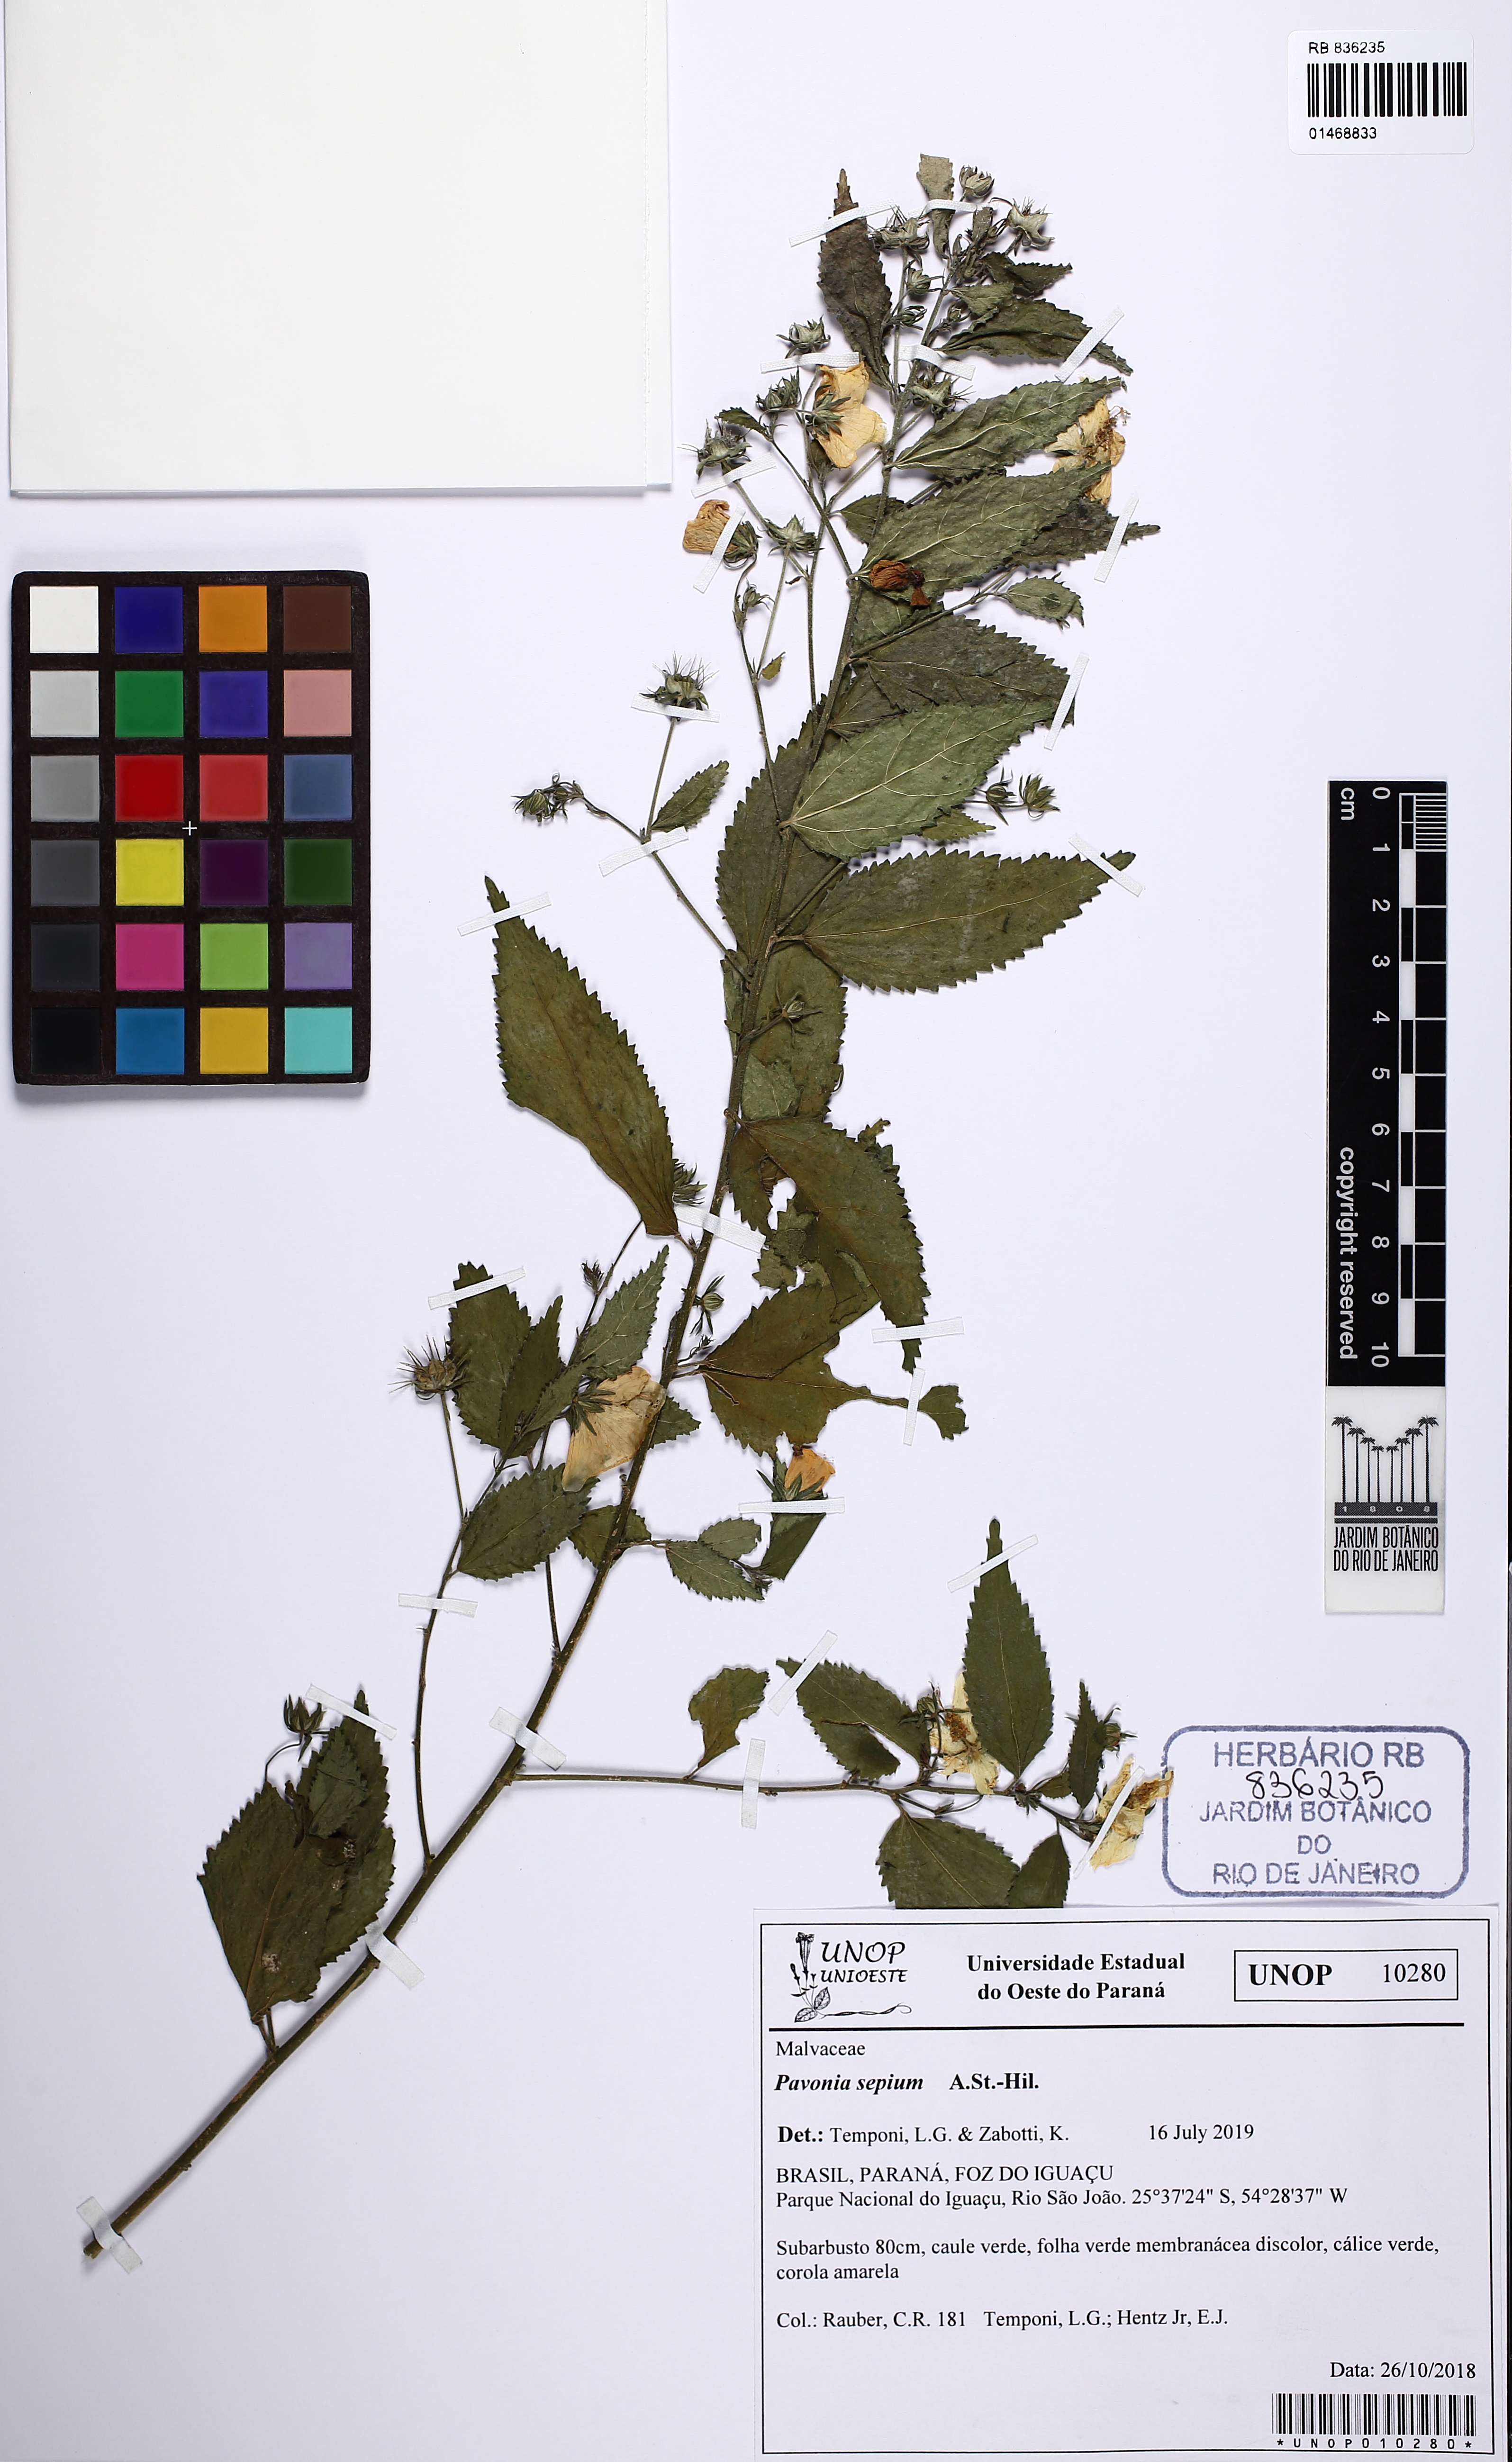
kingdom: Plantae
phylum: Tracheophyta
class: Magnoliopsida
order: Malvales
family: Malvaceae
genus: Pavonia
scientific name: Pavonia sepium
